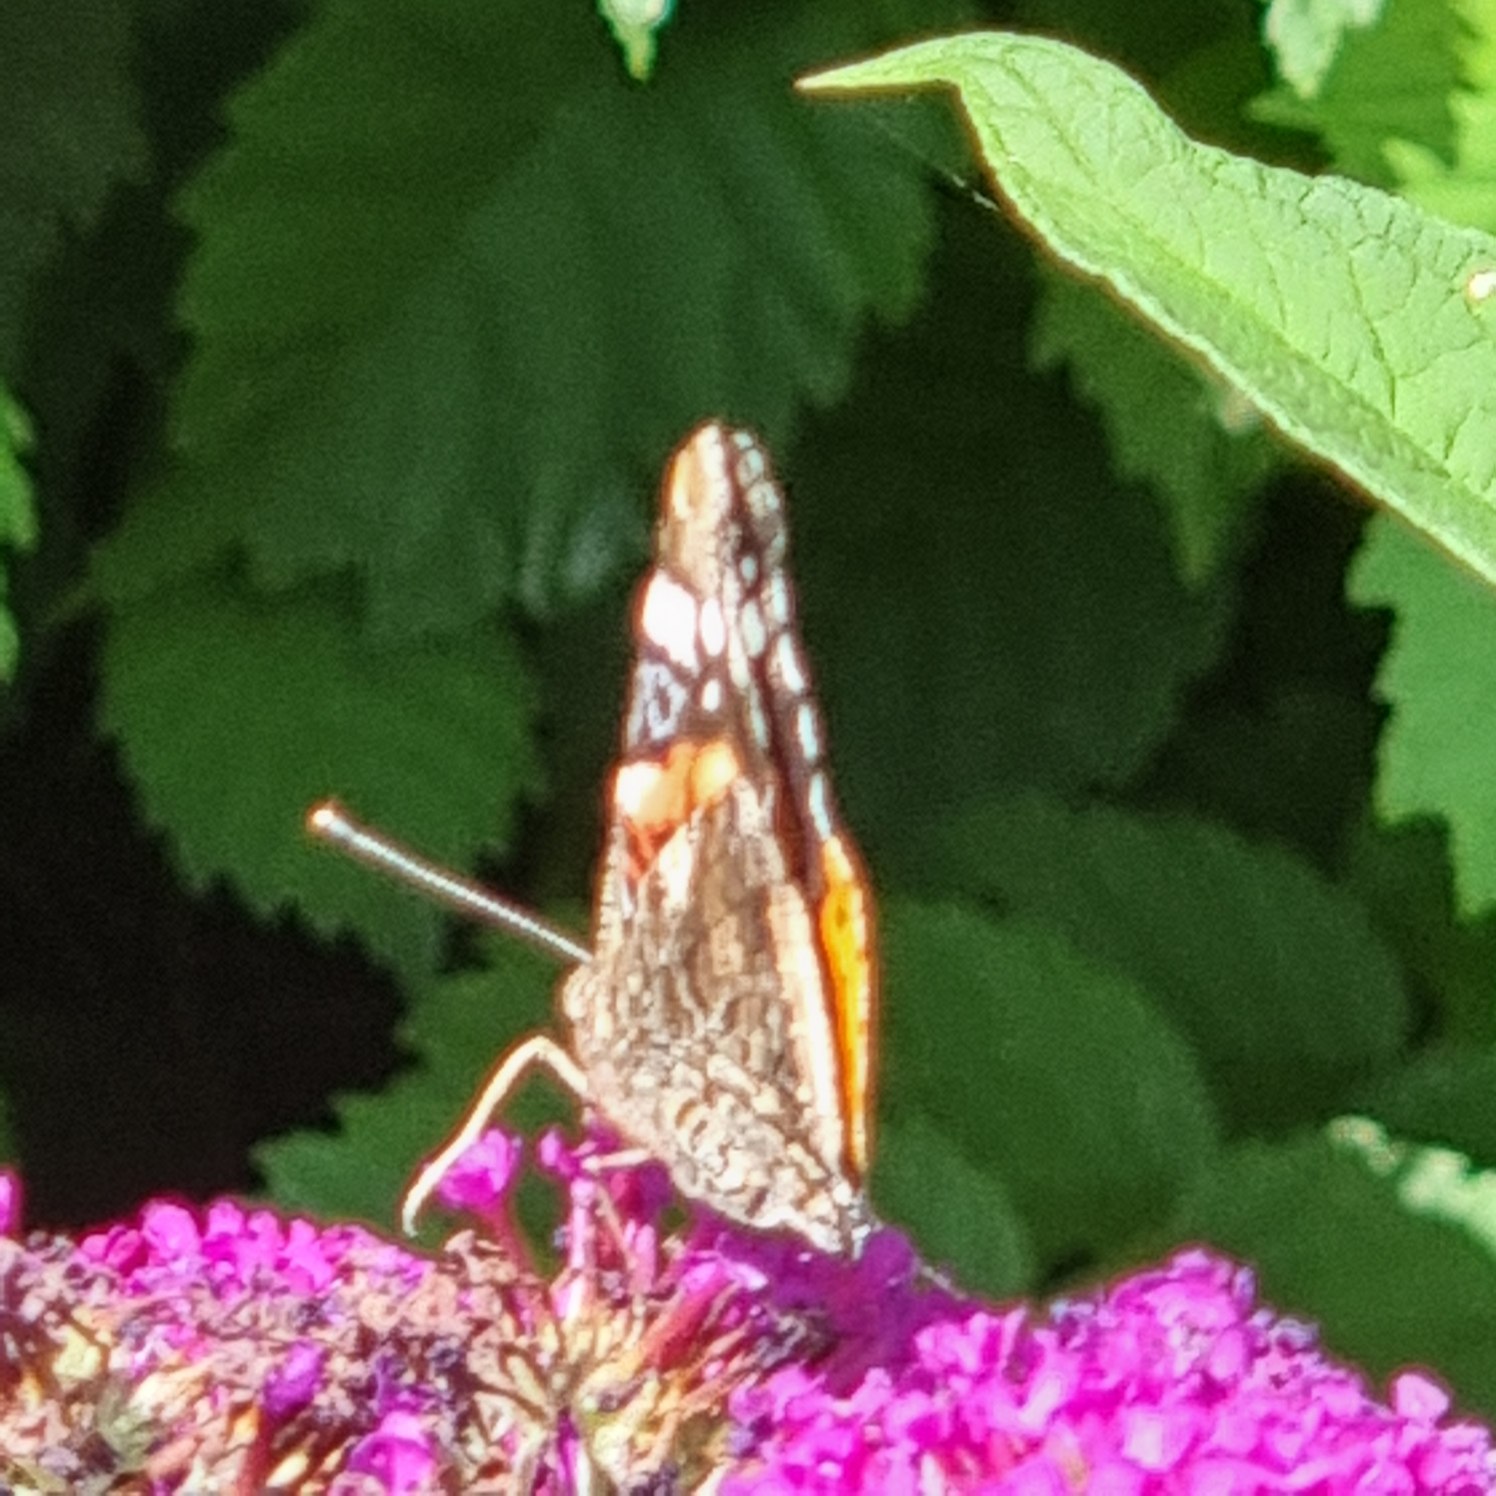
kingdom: Animalia
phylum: Arthropoda
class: Insecta
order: Lepidoptera
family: Nymphalidae
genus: Vanessa
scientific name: Vanessa atalanta
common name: Admiral
